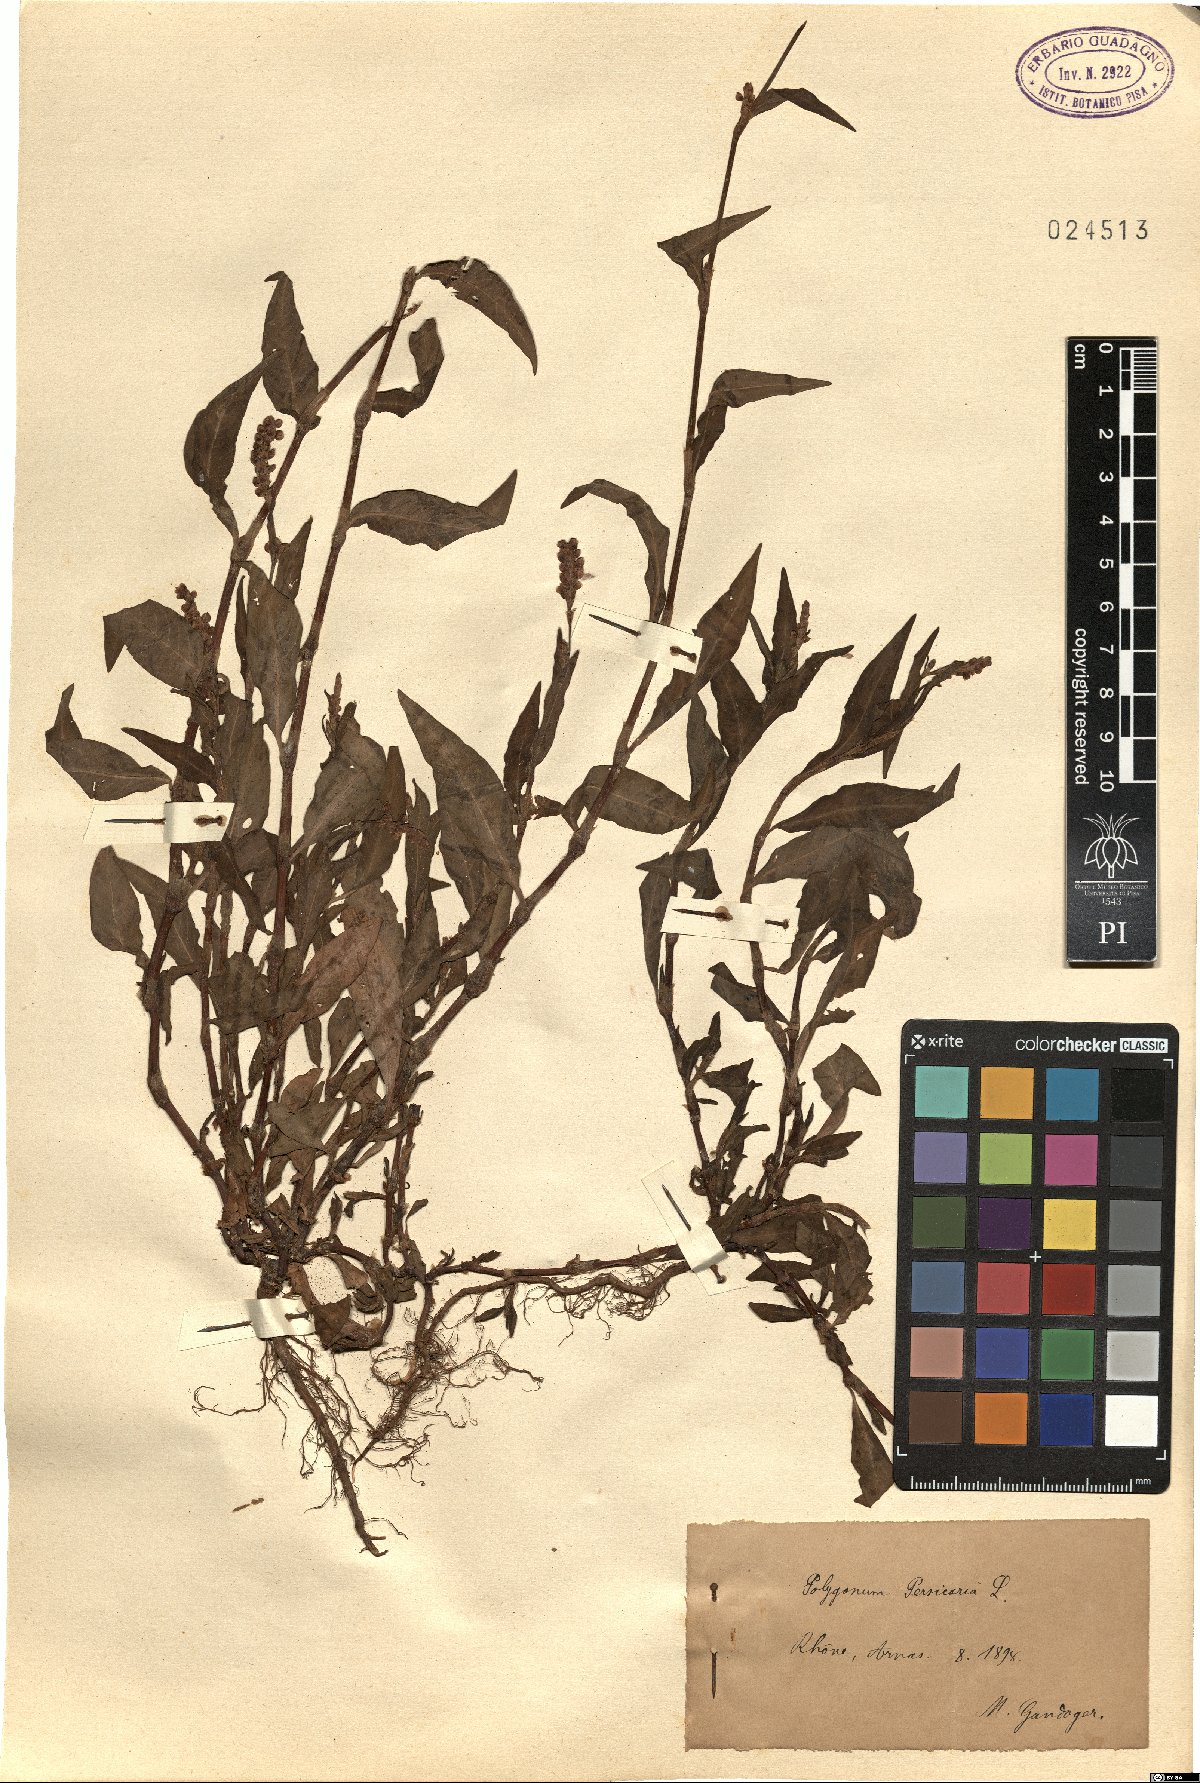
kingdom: Plantae
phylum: Tracheophyta
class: Magnoliopsida
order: Caryophyllales
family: Polygonaceae
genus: Persicaria
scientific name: Persicaria maculosa
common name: Redshank
